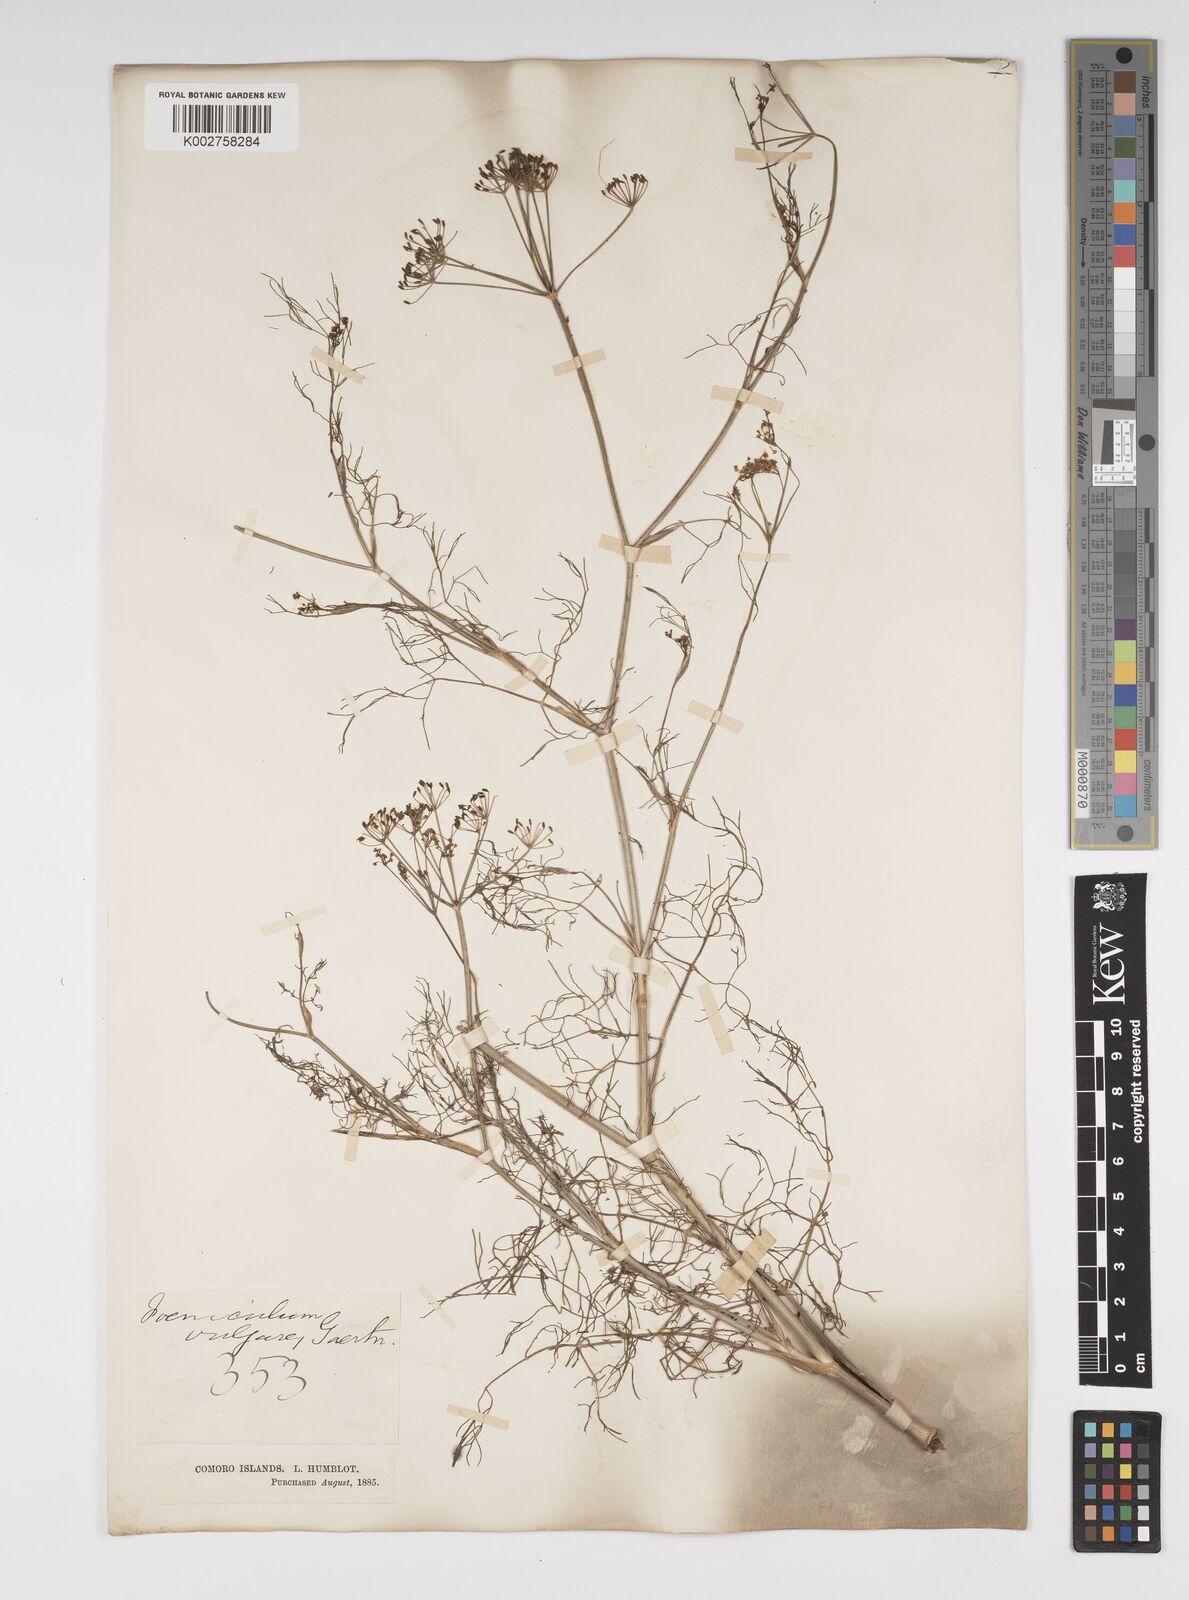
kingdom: Plantae
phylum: Tracheophyta
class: Magnoliopsida
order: Apiales
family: Apiaceae
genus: Foeniculum
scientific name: Foeniculum
